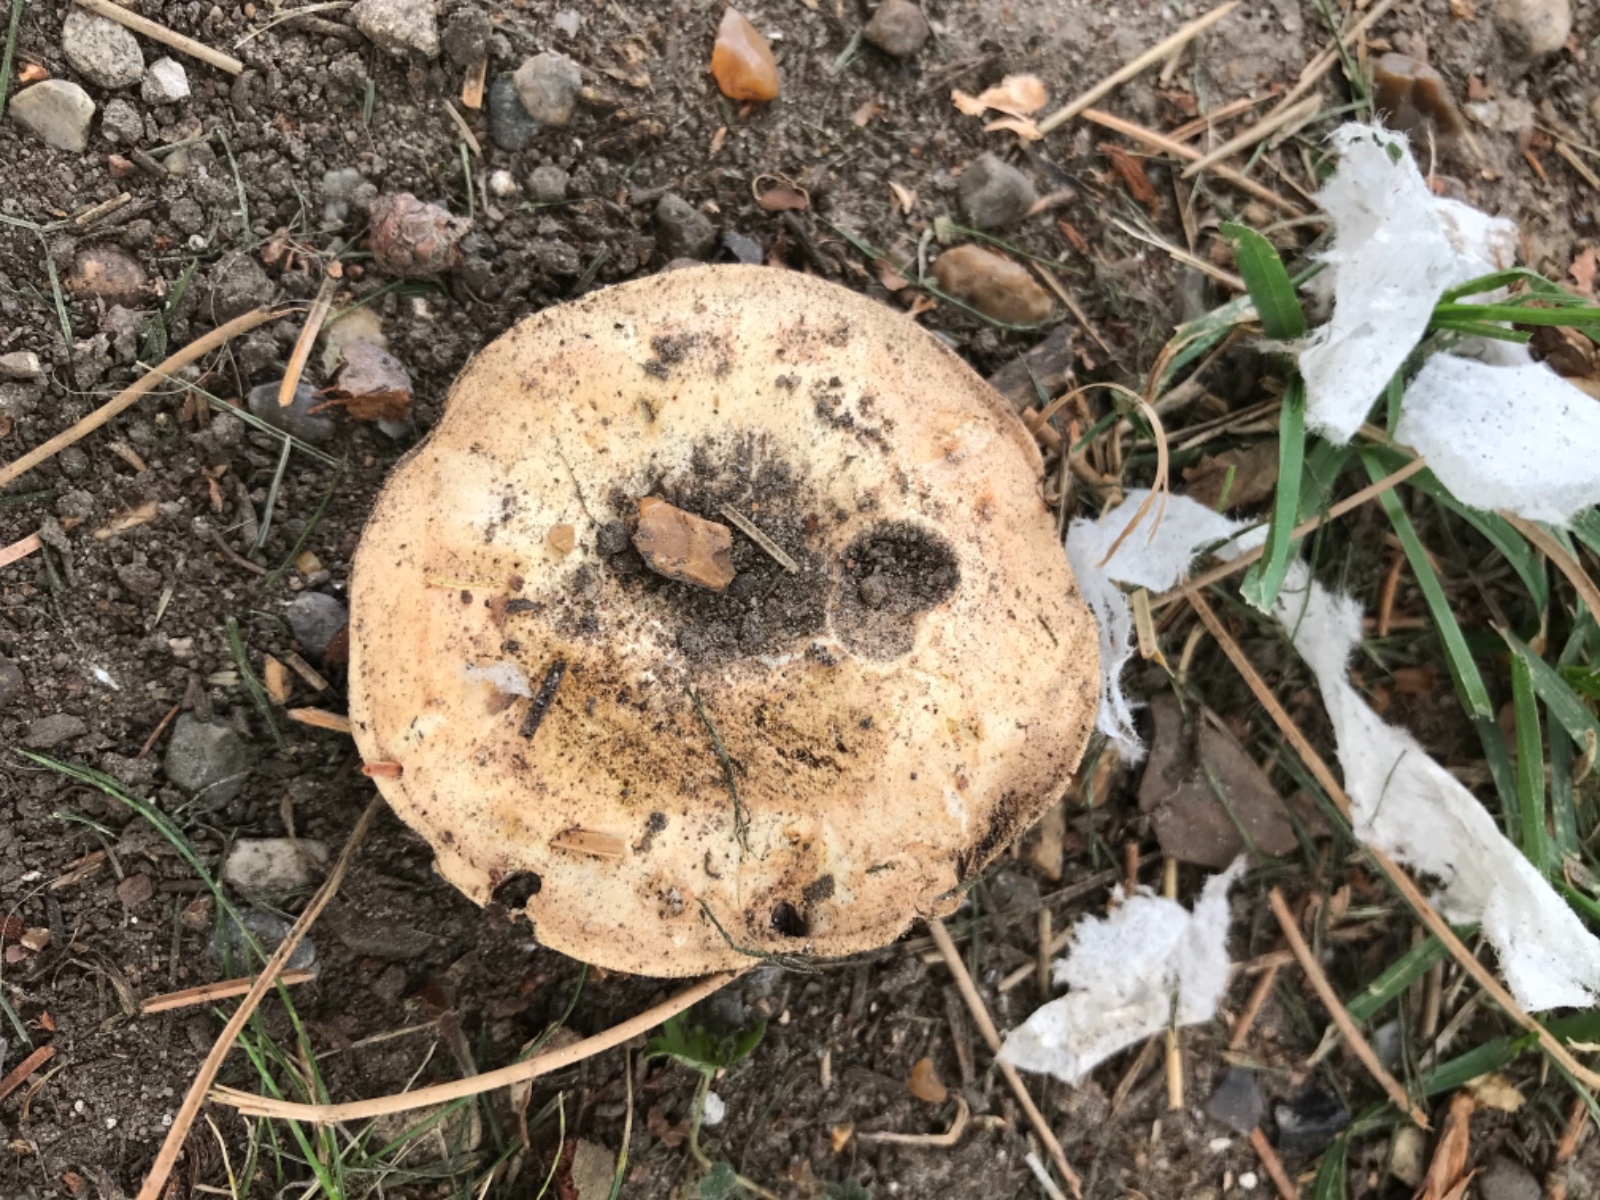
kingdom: Fungi
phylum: Basidiomycota
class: Agaricomycetes
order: Agaricales
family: Agaricaceae
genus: Agaricus
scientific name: Agaricus bitorquis
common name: vej-champignon
